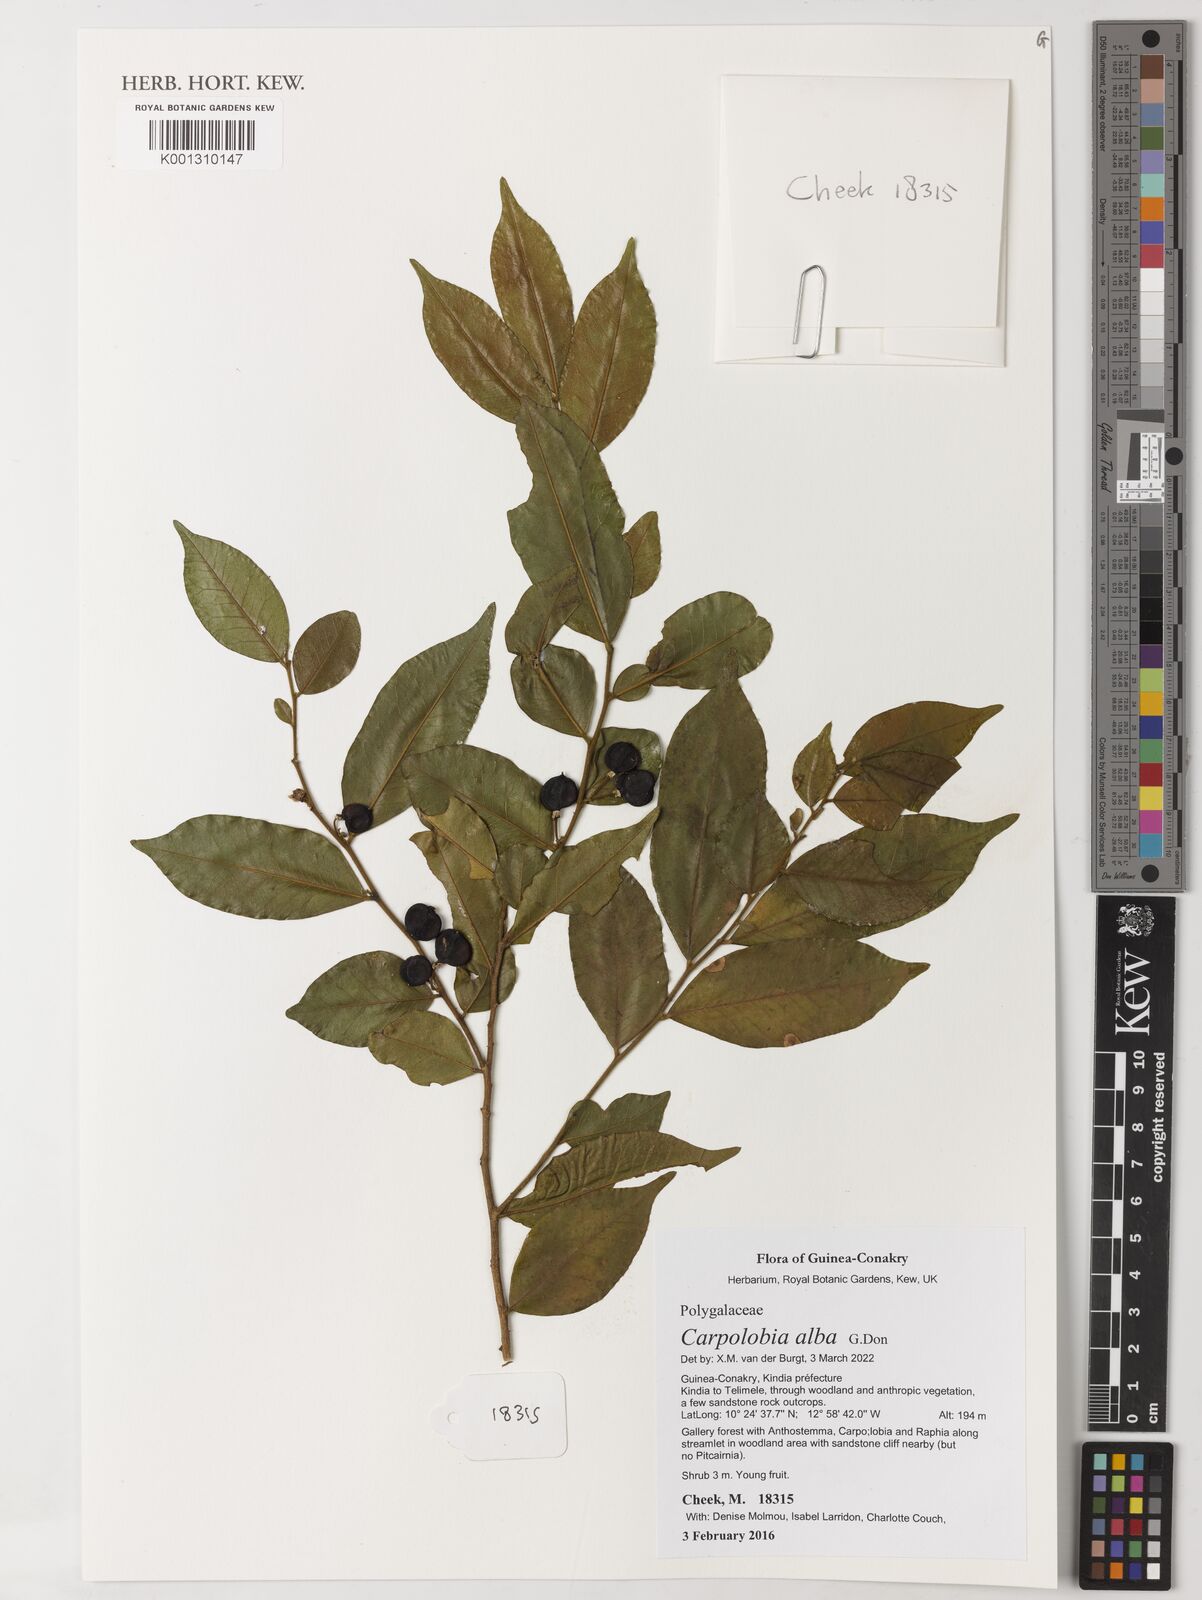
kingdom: Plantae
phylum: Tracheophyta
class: Magnoliopsida
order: Fabales
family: Polygalaceae
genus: Carpolobia
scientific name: Carpolobia alba
